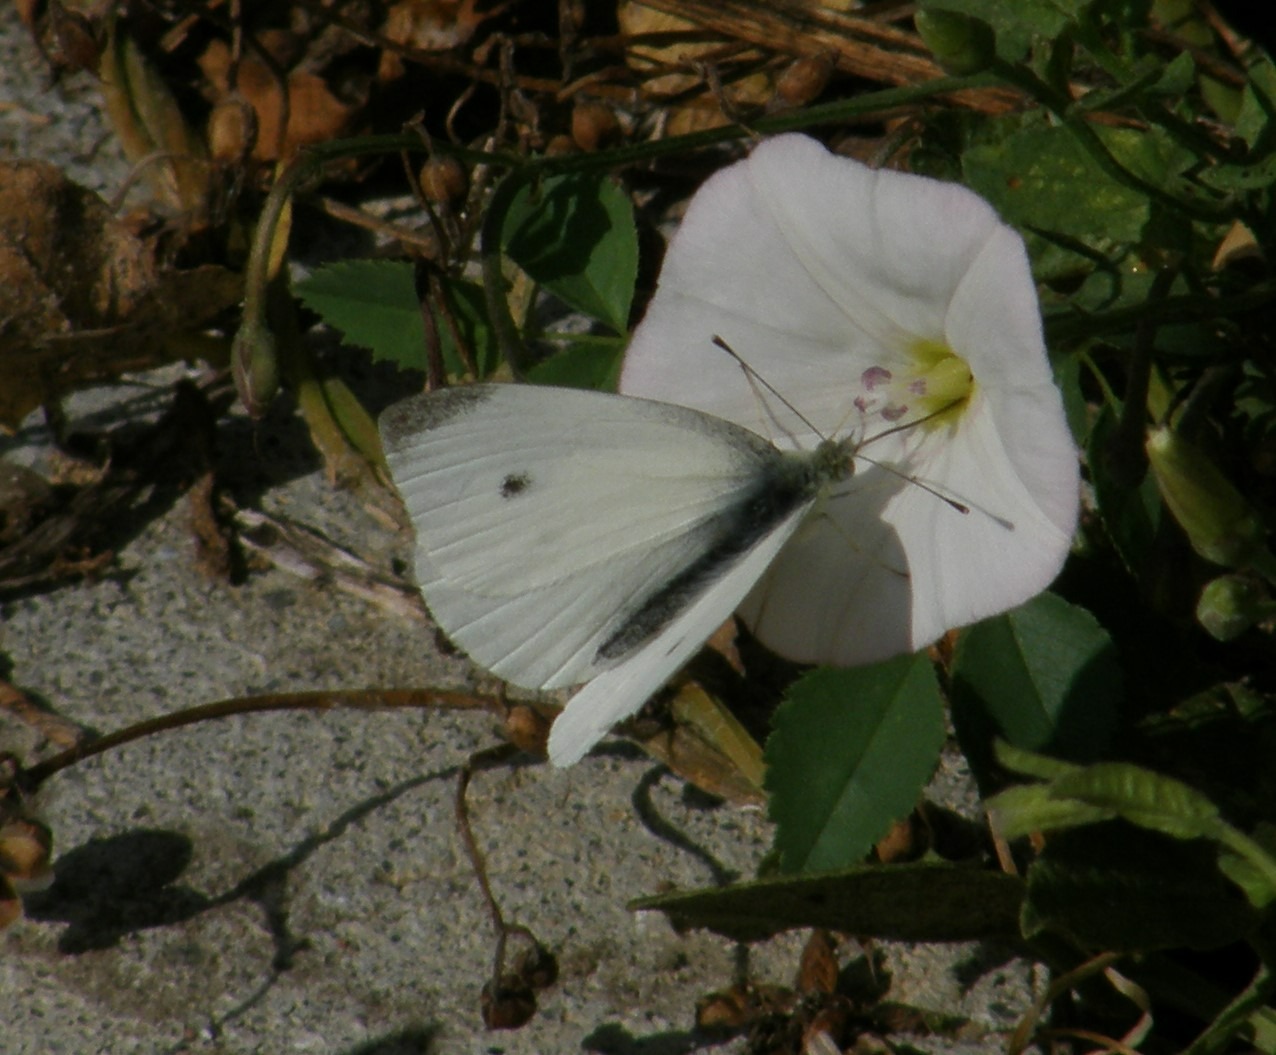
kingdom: Animalia
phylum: Arthropoda
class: Insecta
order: Lepidoptera
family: Pieridae
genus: Pieris
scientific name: Pieris rapae
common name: Lille kålsommerfugl
